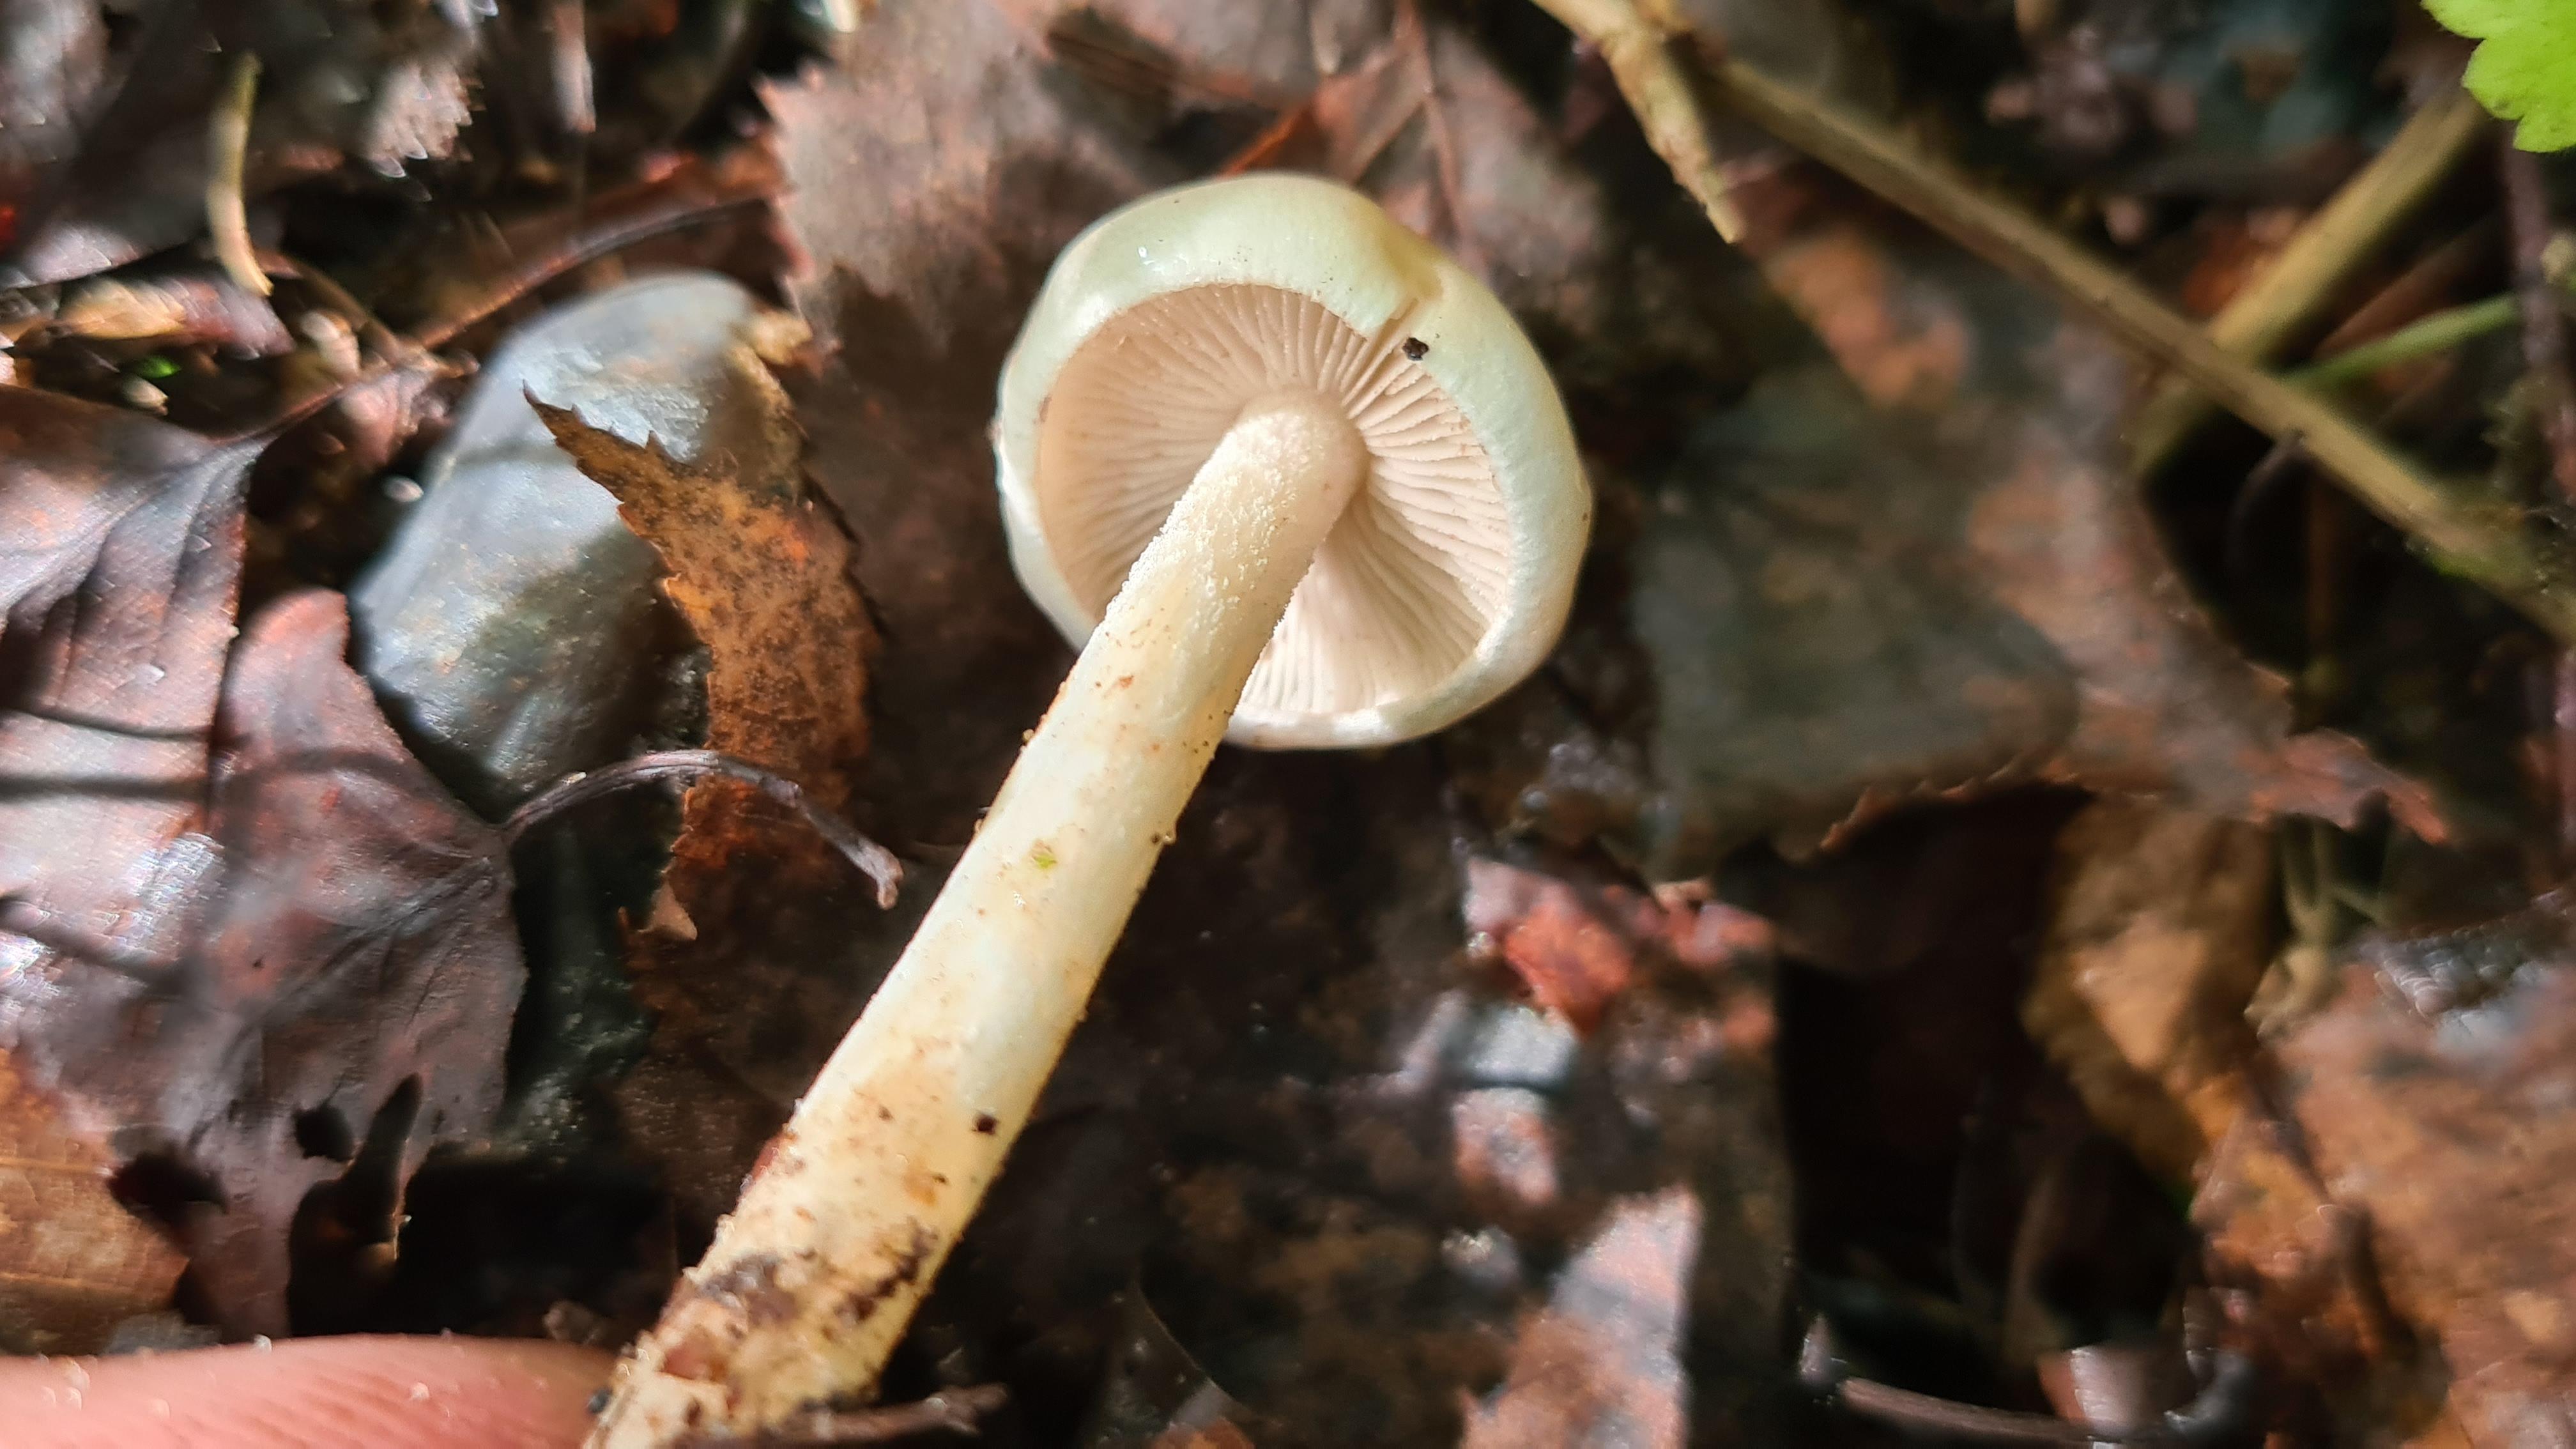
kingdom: Fungi
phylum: Basidiomycota
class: Agaricomycetes
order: Agaricales
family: Strophariaceae
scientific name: Strophariaceae
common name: bredbladfamilien
